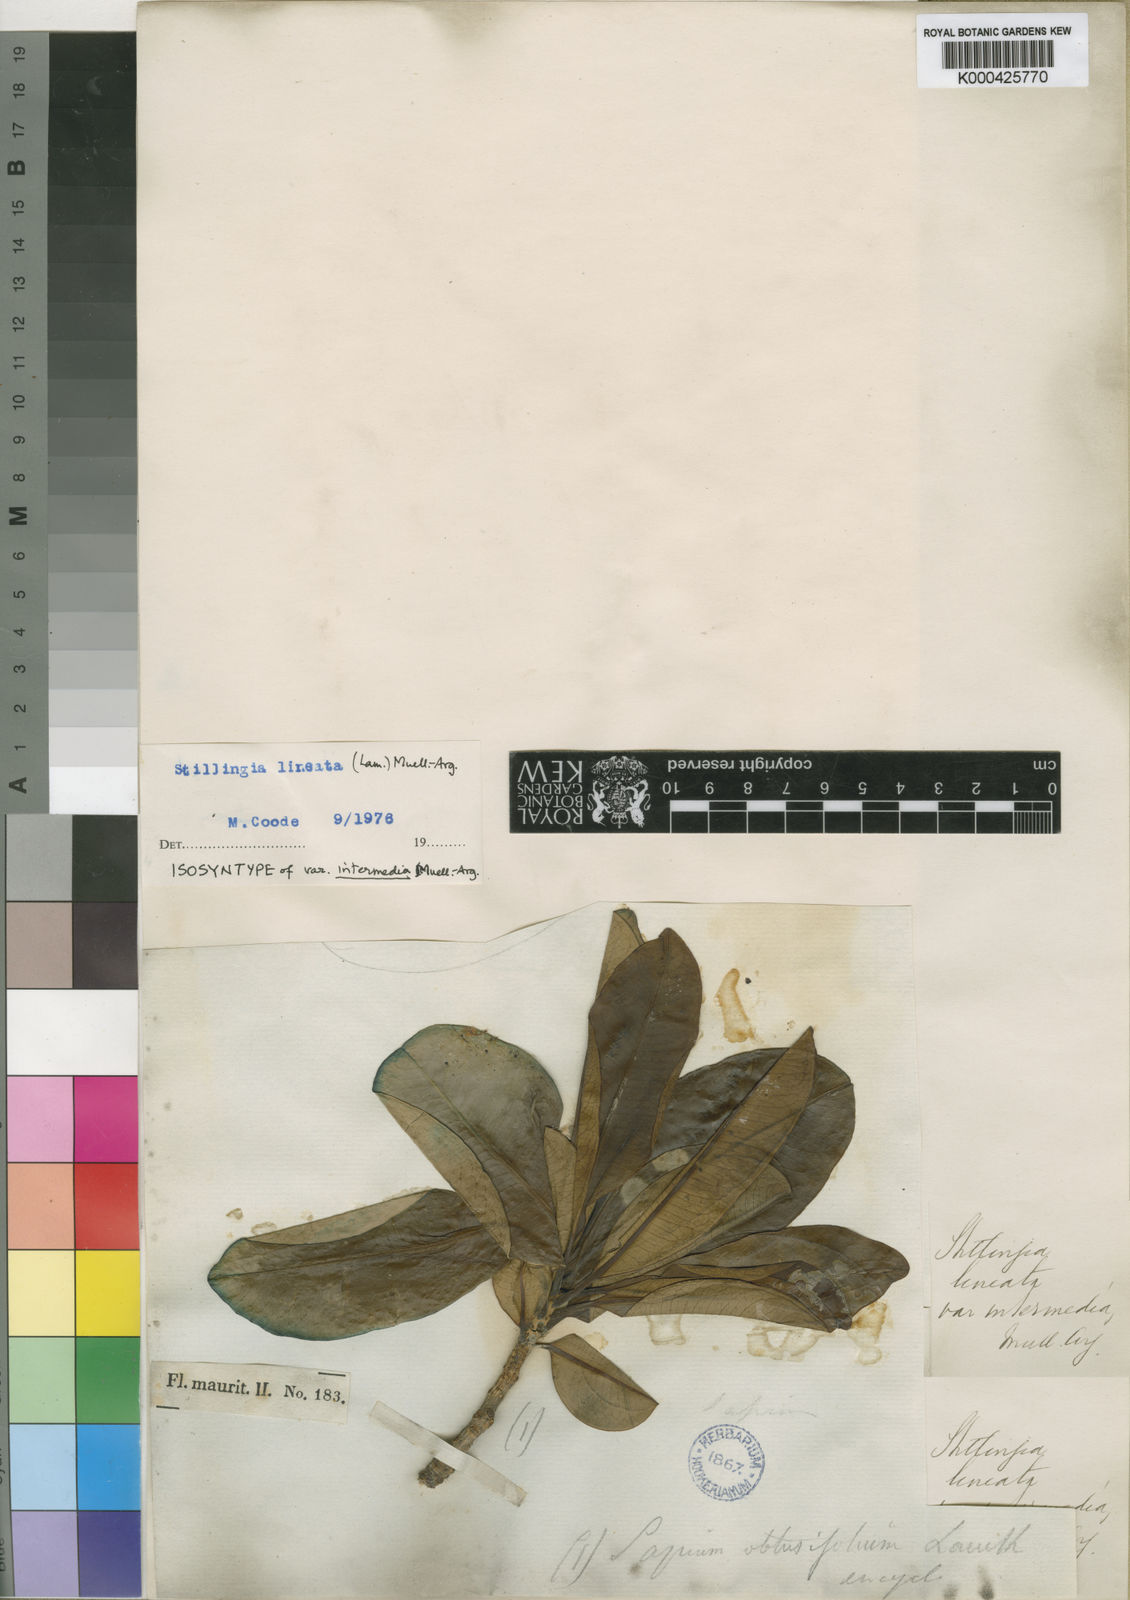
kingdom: Plantae
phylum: Tracheophyta
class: Magnoliopsida
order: Malpighiales
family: Euphorbiaceae
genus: Stillingia
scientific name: Stillingia
